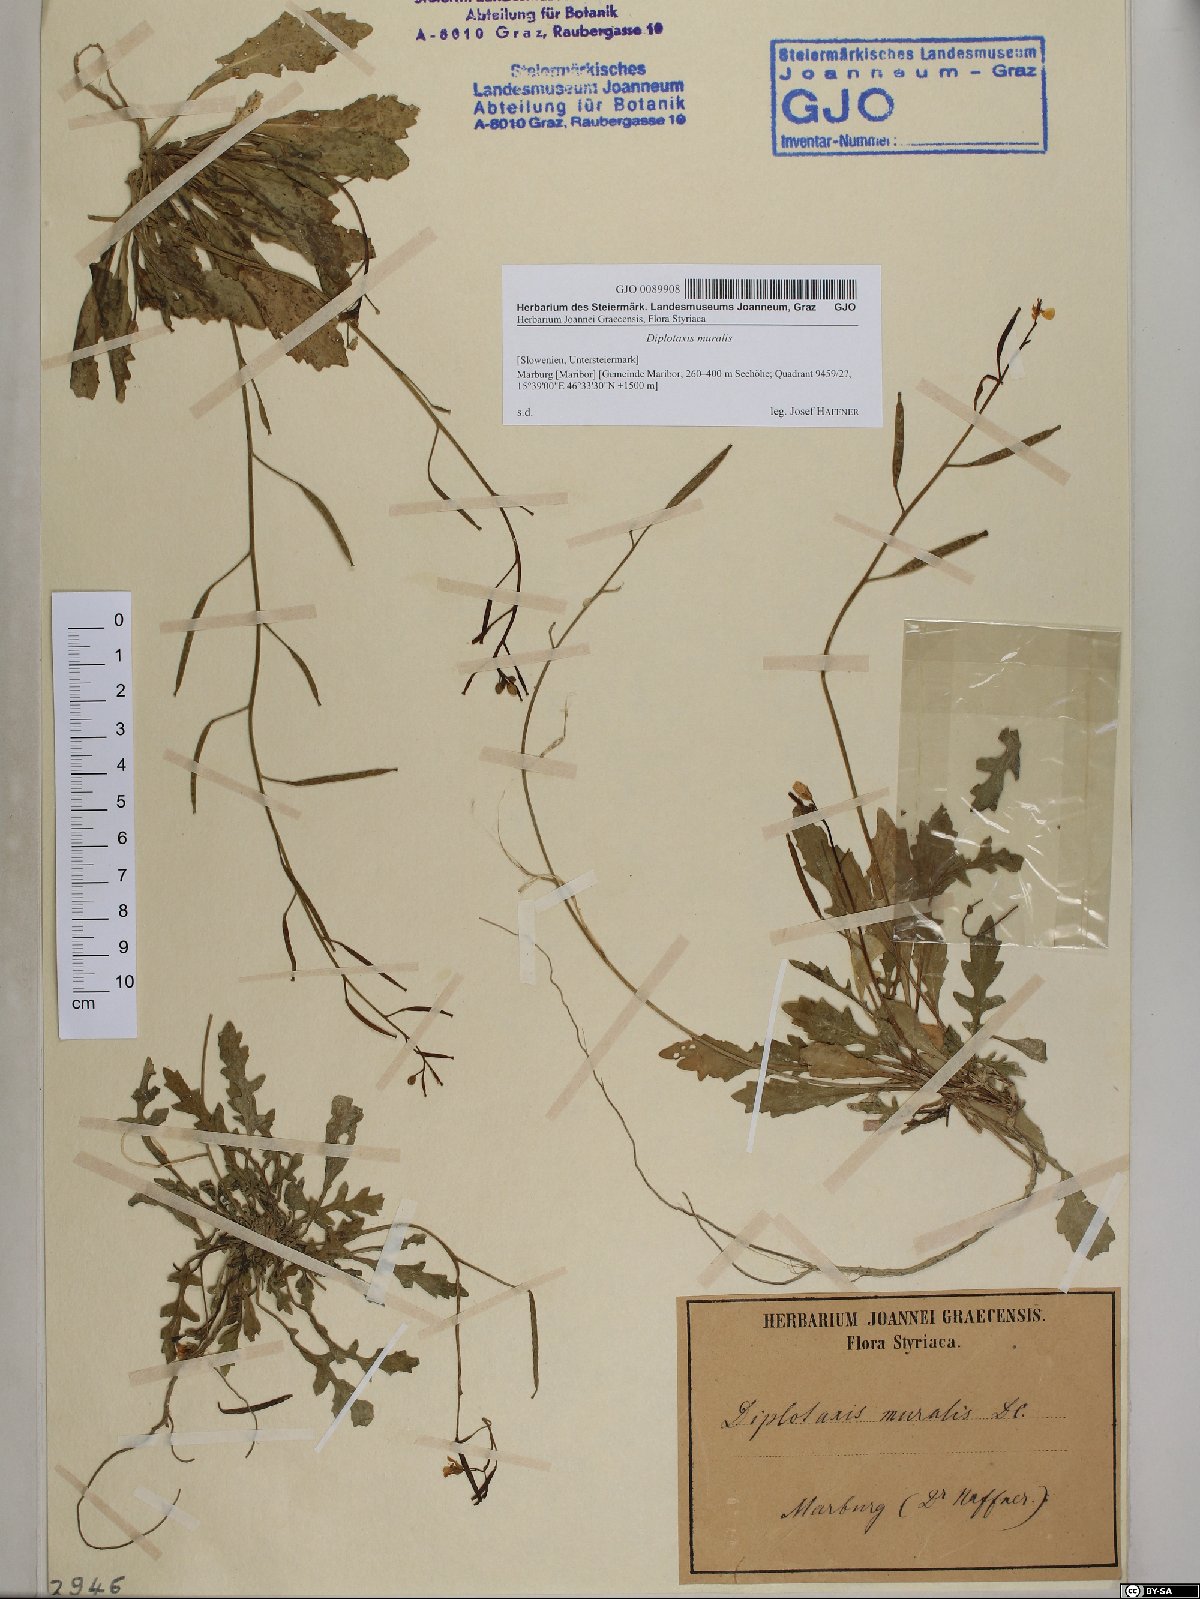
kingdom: Plantae
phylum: Tracheophyta
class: Magnoliopsida
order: Brassicales
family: Brassicaceae
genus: Diplotaxis
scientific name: Diplotaxis muralis
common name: Annual wall-rocket
